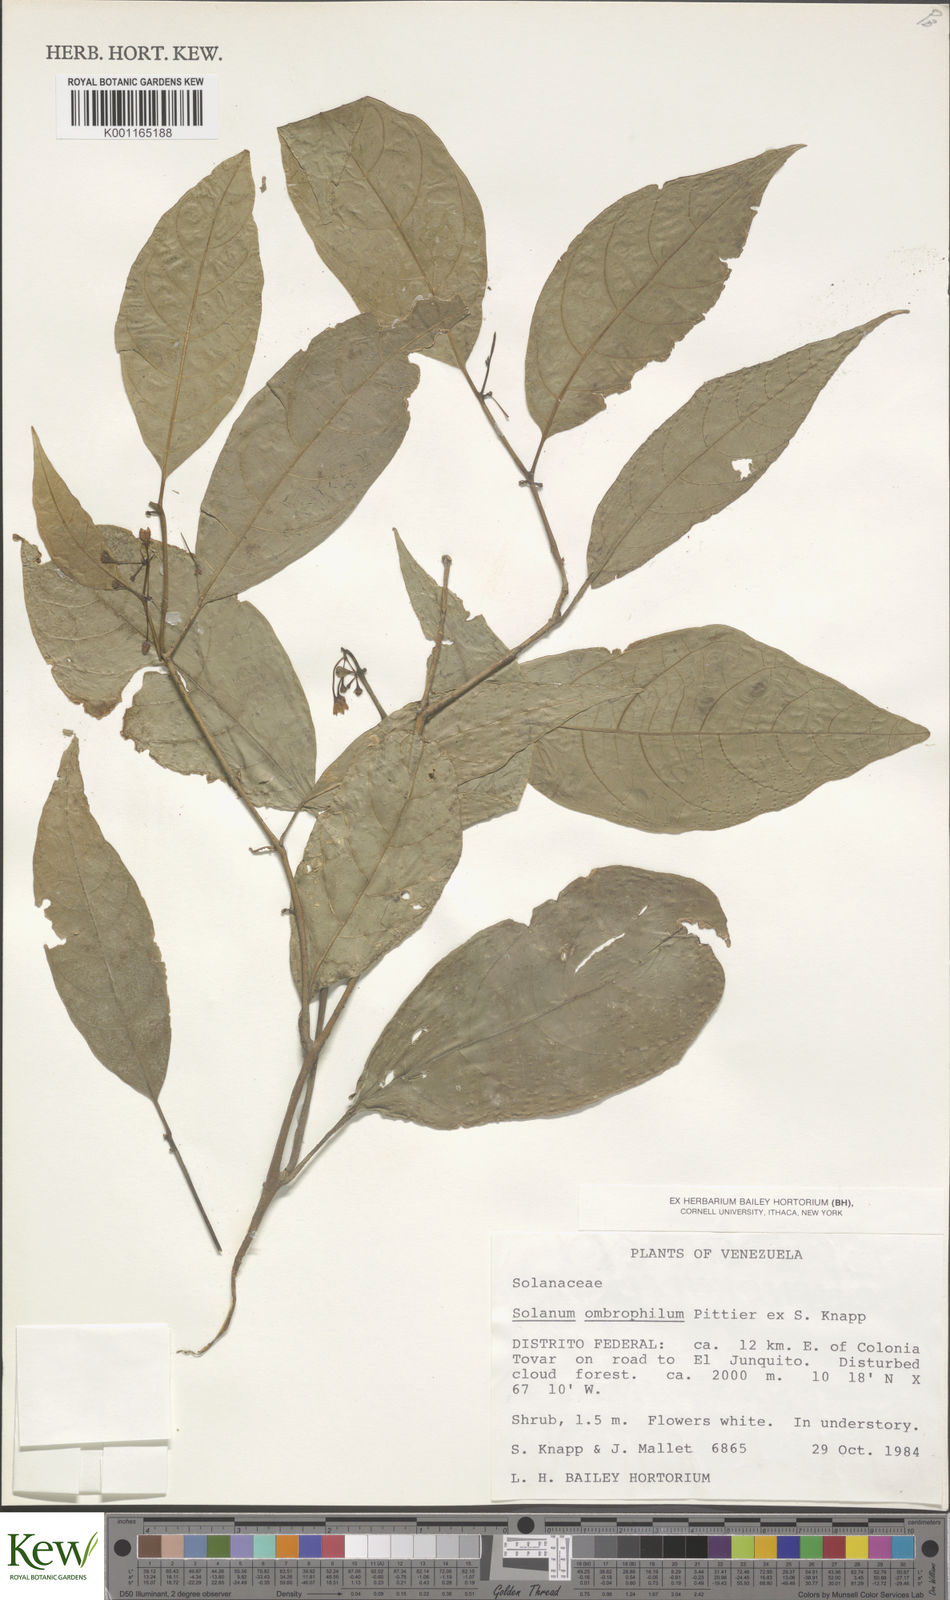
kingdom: Plantae
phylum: Tracheophyta
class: Magnoliopsida
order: Solanales
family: Solanaceae
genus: Solanum
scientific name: Solanum ombrophilum
